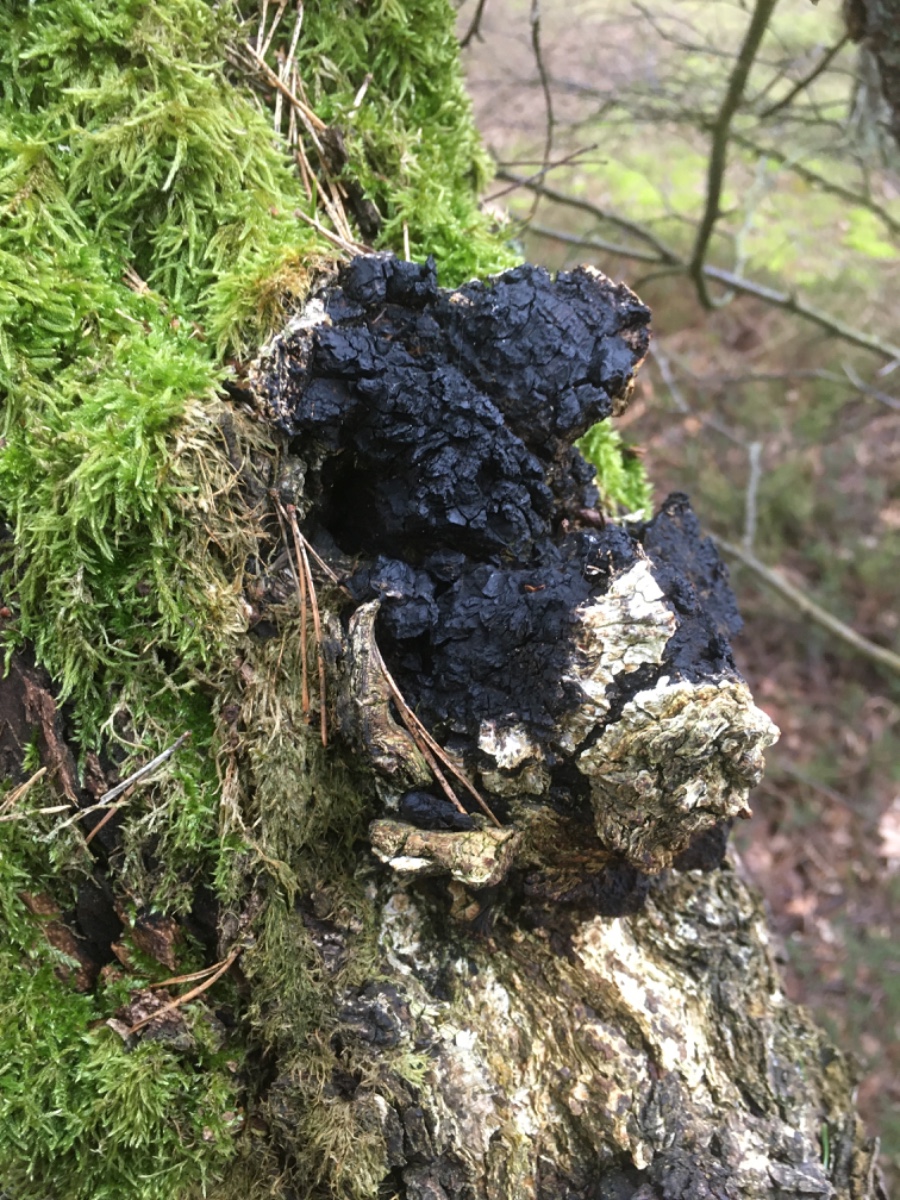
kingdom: Fungi
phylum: Basidiomycota
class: Agaricomycetes
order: Hymenochaetales
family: Hymenochaetaceae
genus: Inonotus
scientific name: Inonotus obliquus
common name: birke-spejlporesvamp
